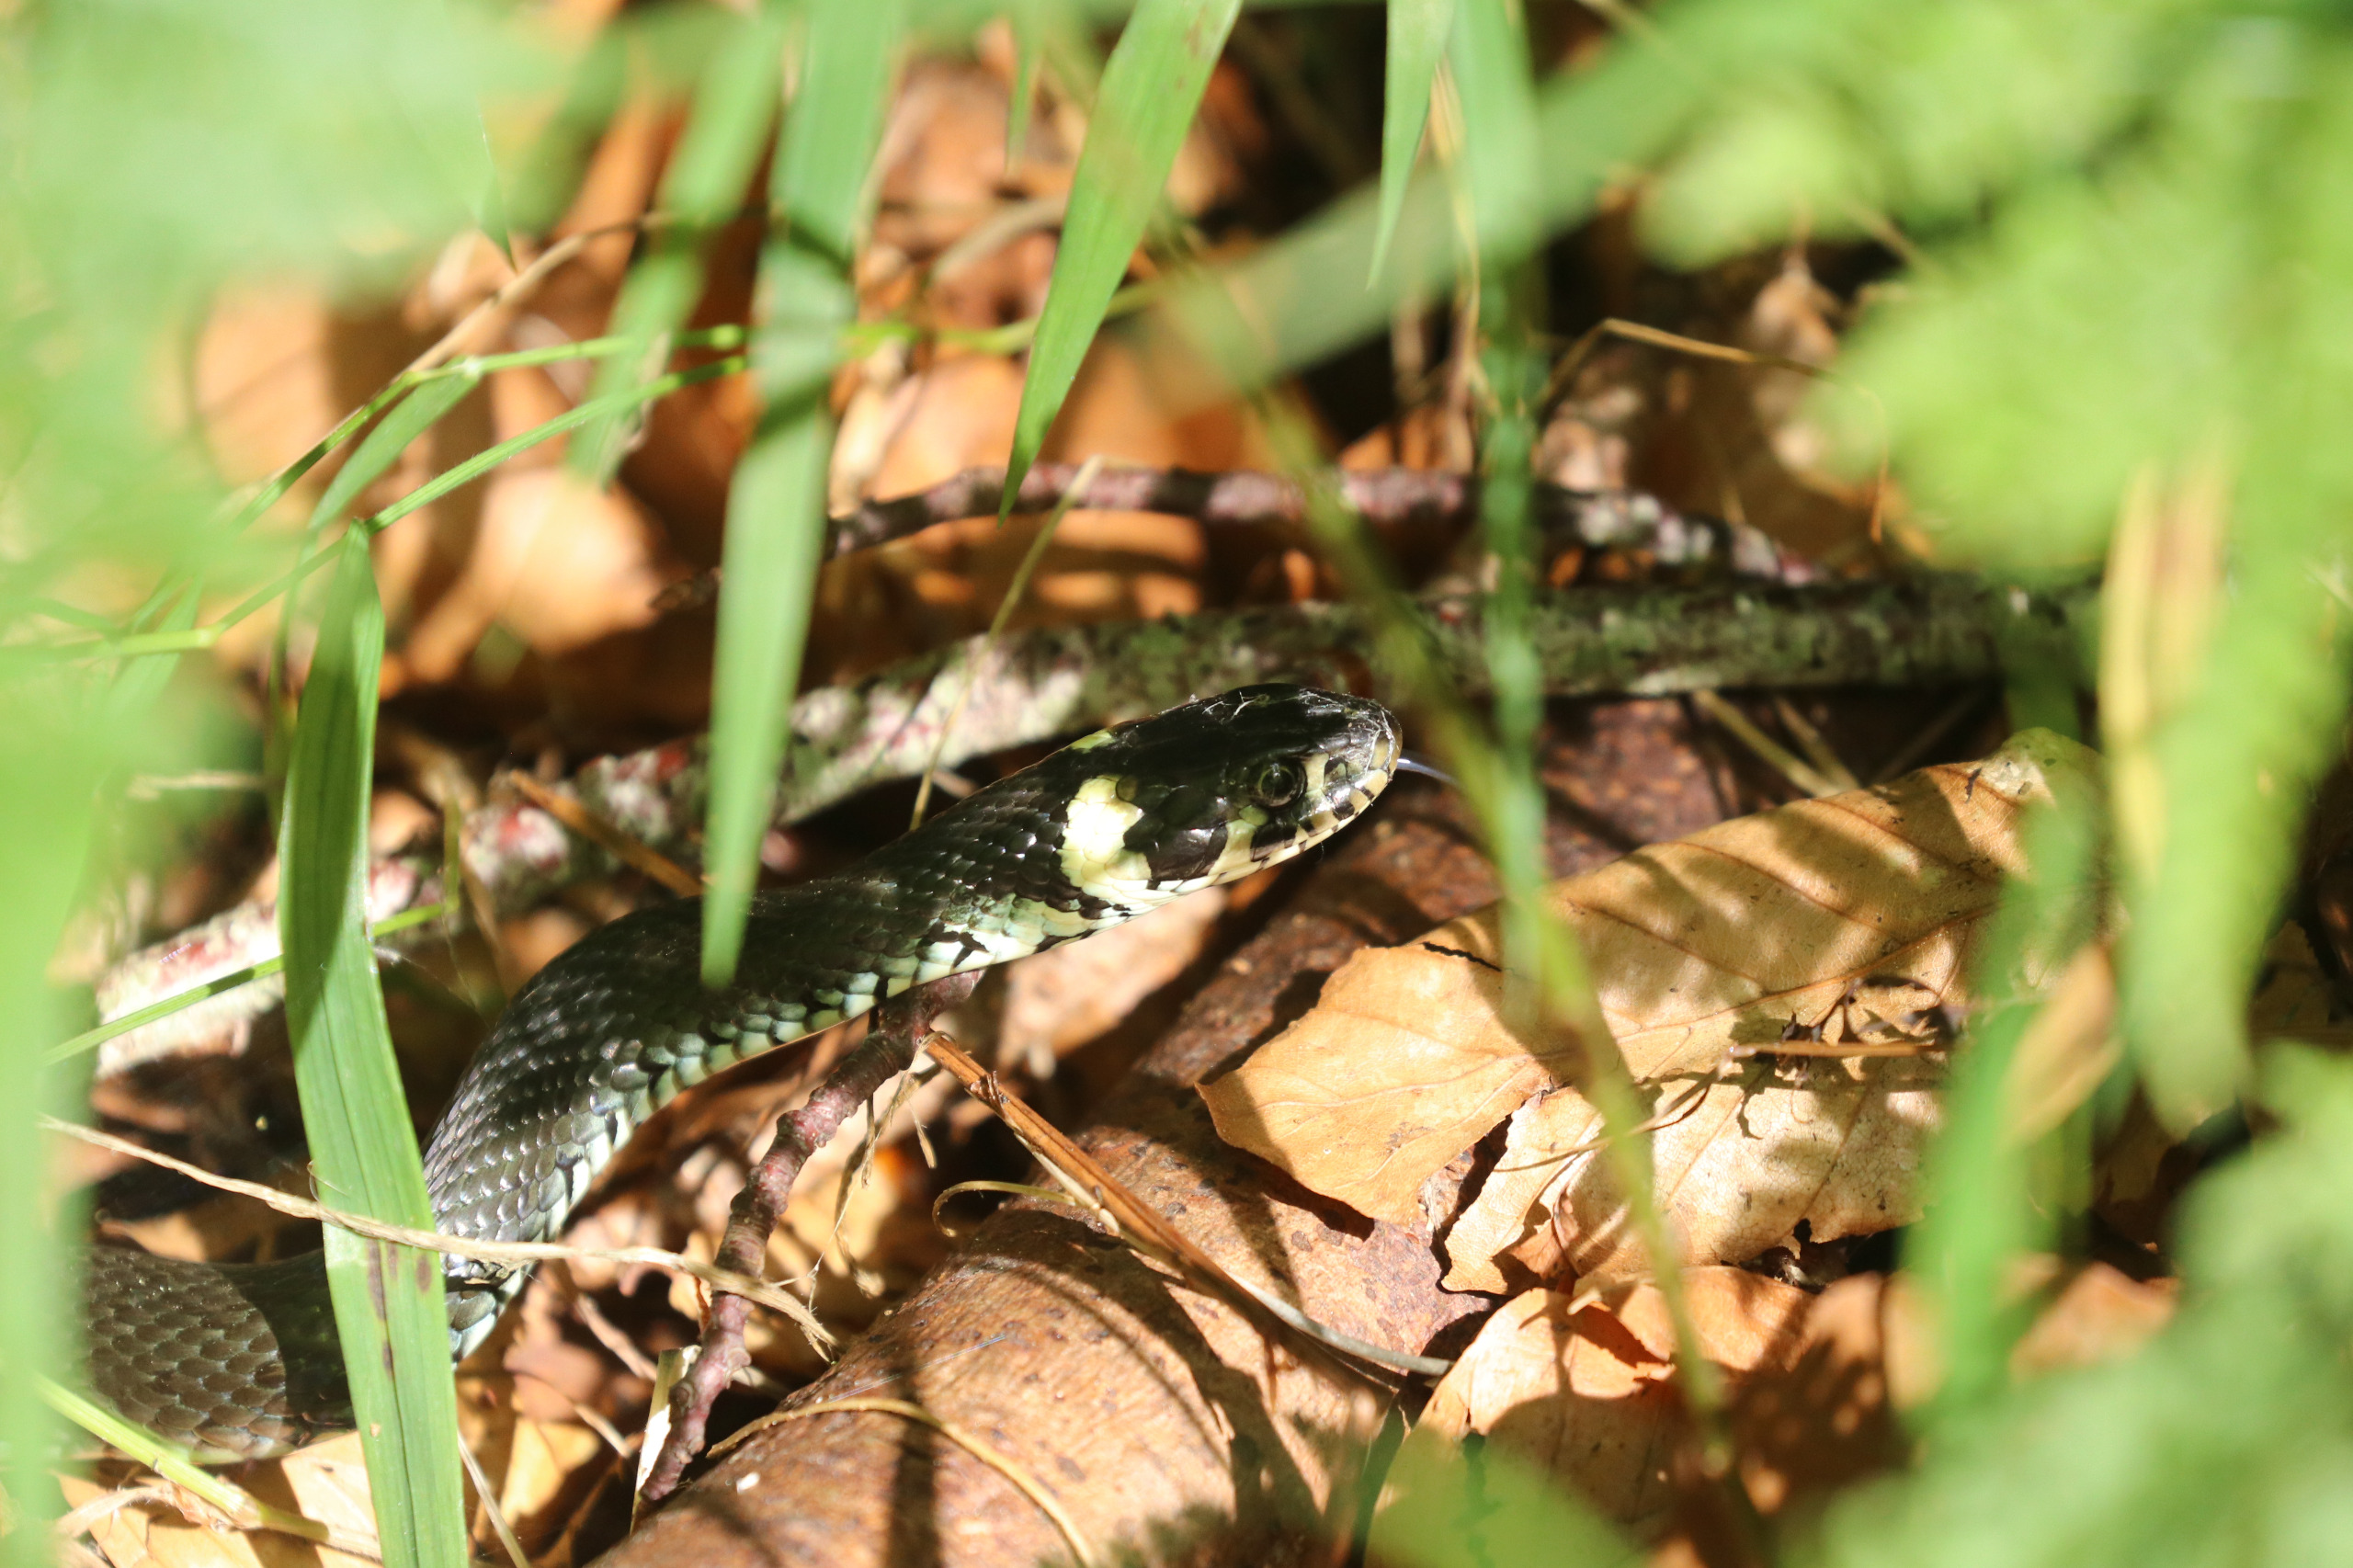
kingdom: Animalia
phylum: Chordata
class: Squamata
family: Colubridae
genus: Natrix
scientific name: Natrix natrix
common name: Snog
